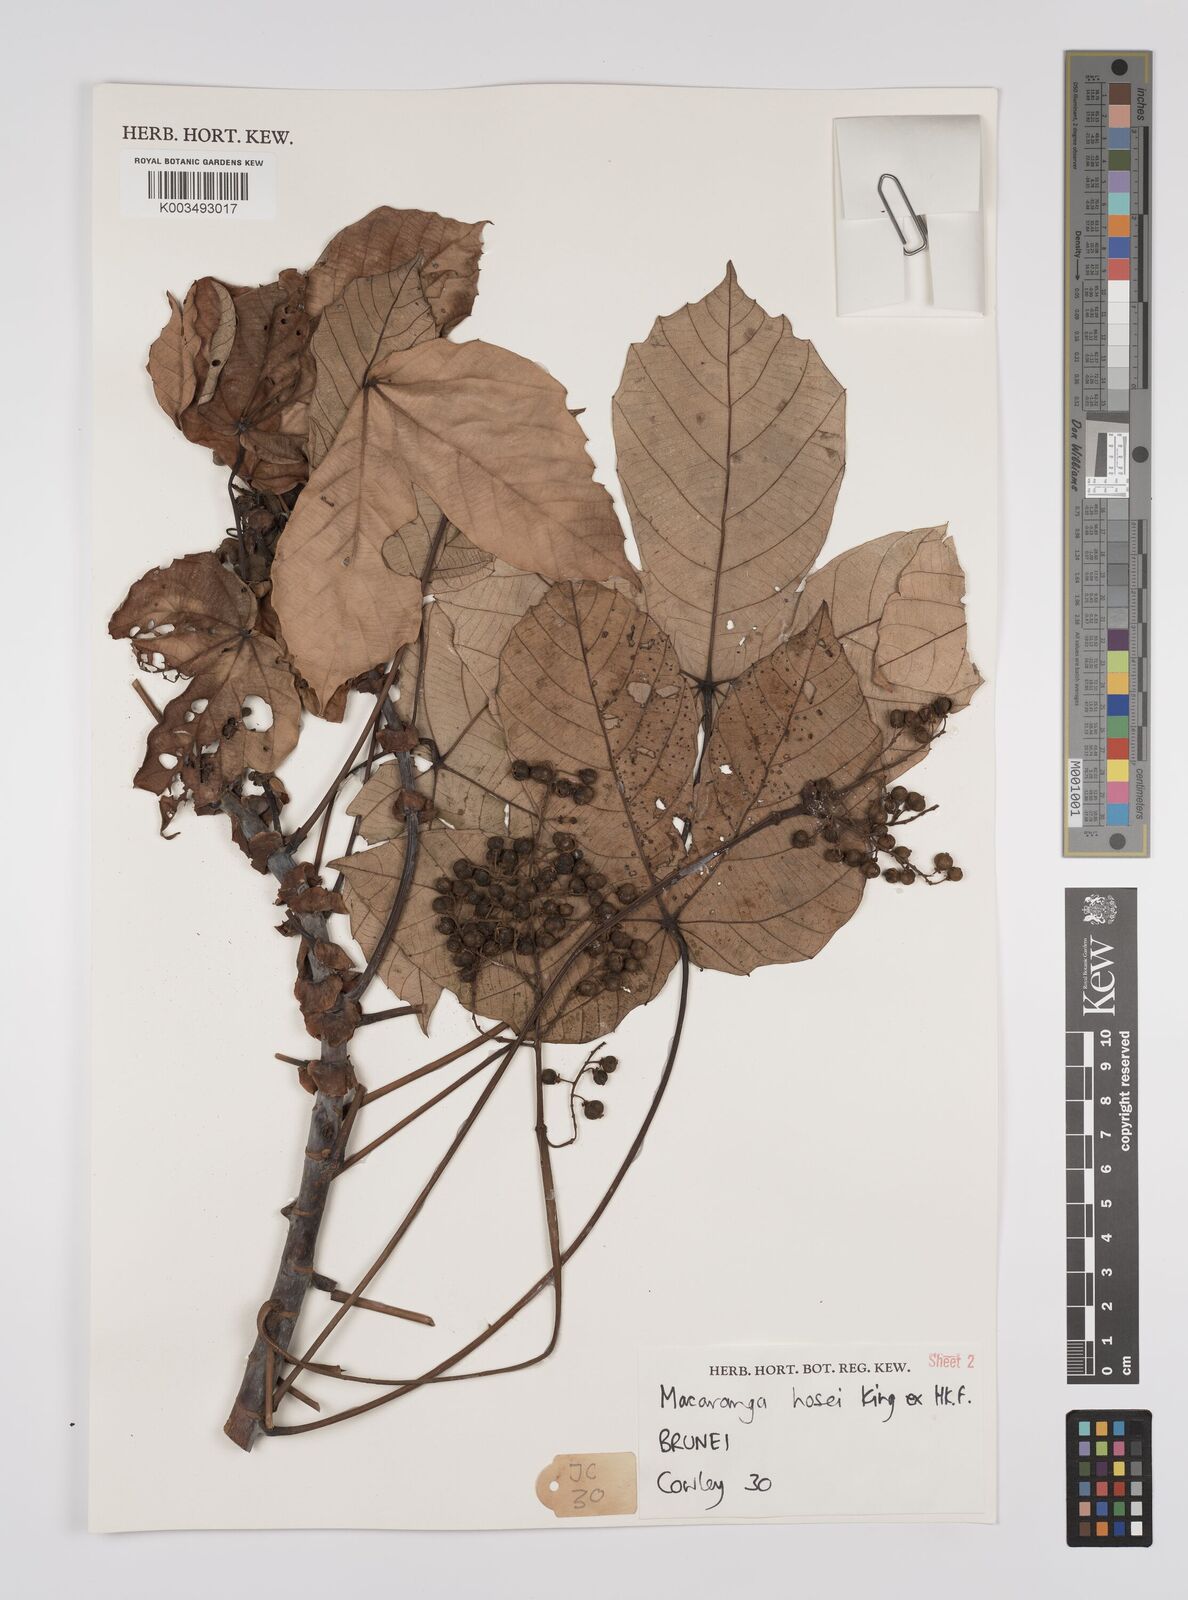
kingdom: Plantae
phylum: Tracheophyta
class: Magnoliopsida
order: Malpighiales
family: Euphorbiaceae
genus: Macaranga
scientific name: Macaranga hosei
